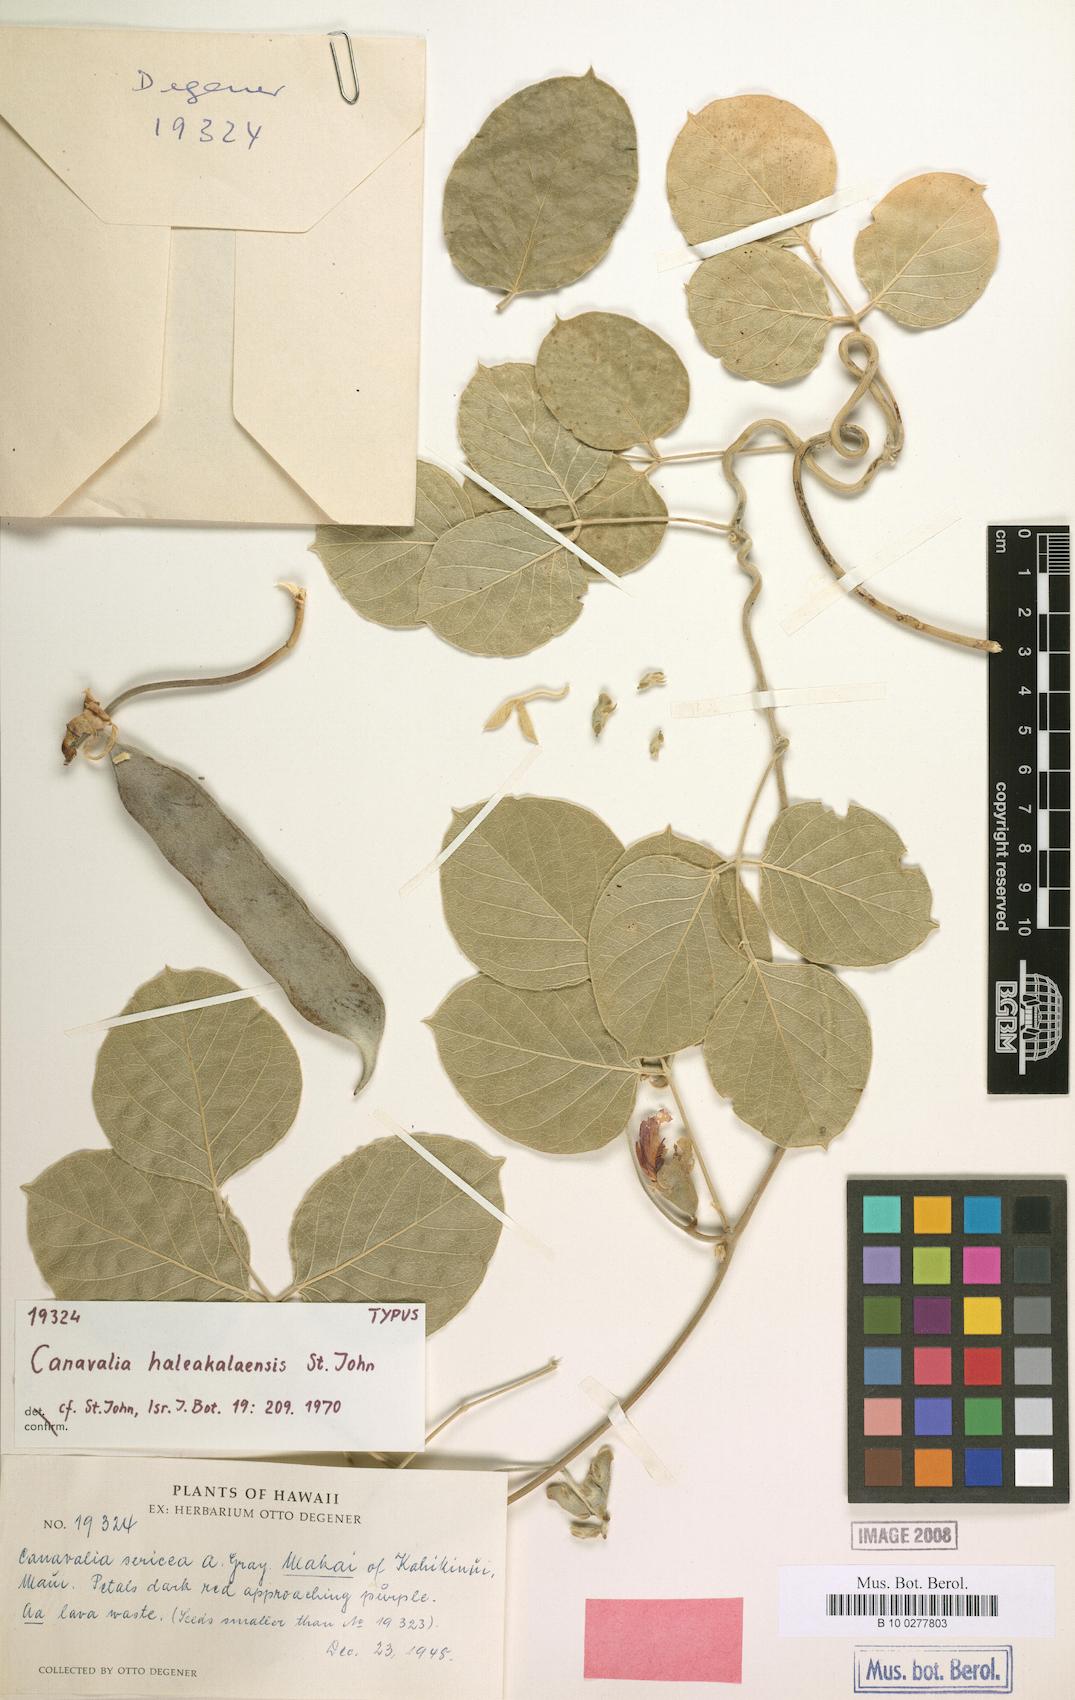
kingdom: Plantae
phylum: Tracheophyta
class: Magnoliopsida
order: Fabales
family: Fabaceae
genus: Canavalia
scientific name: Canavalia haleakalaensis
